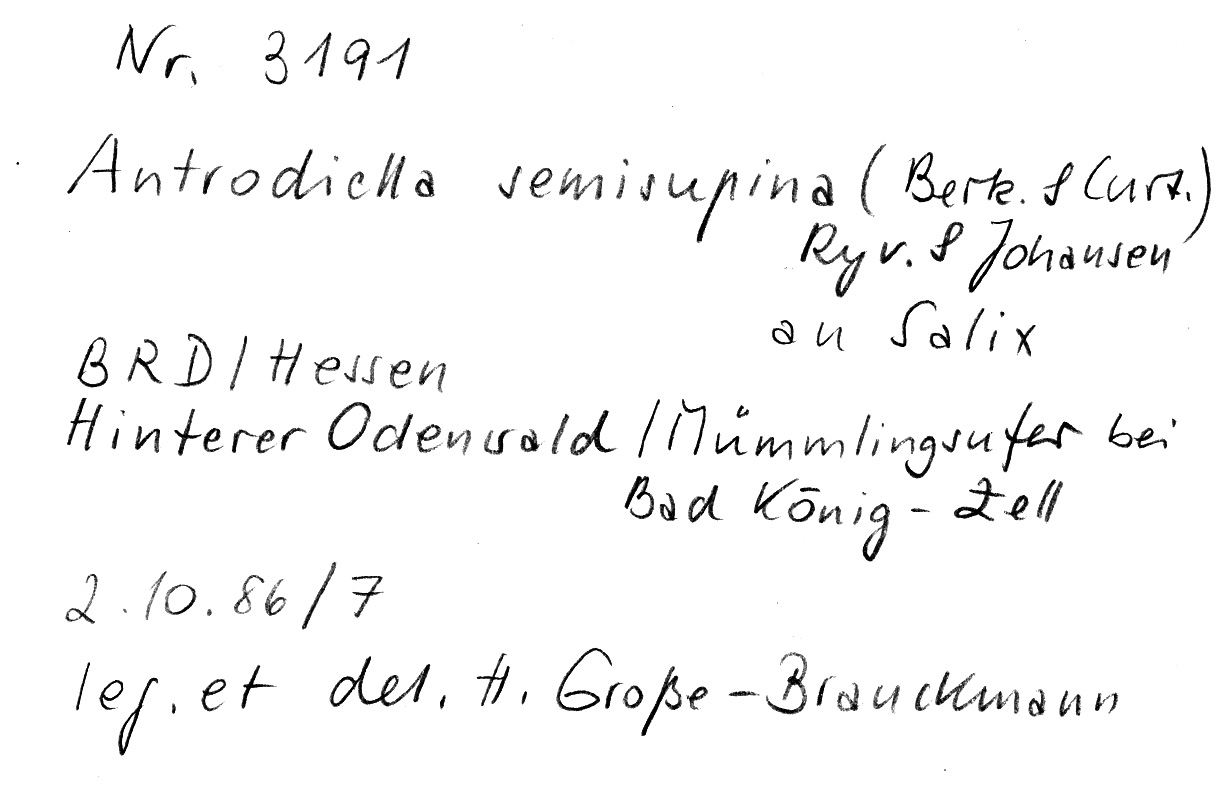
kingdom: Plantae
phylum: Tracheophyta
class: Magnoliopsida
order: Malpighiales
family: Salicaceae
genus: Salix
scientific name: Salix
